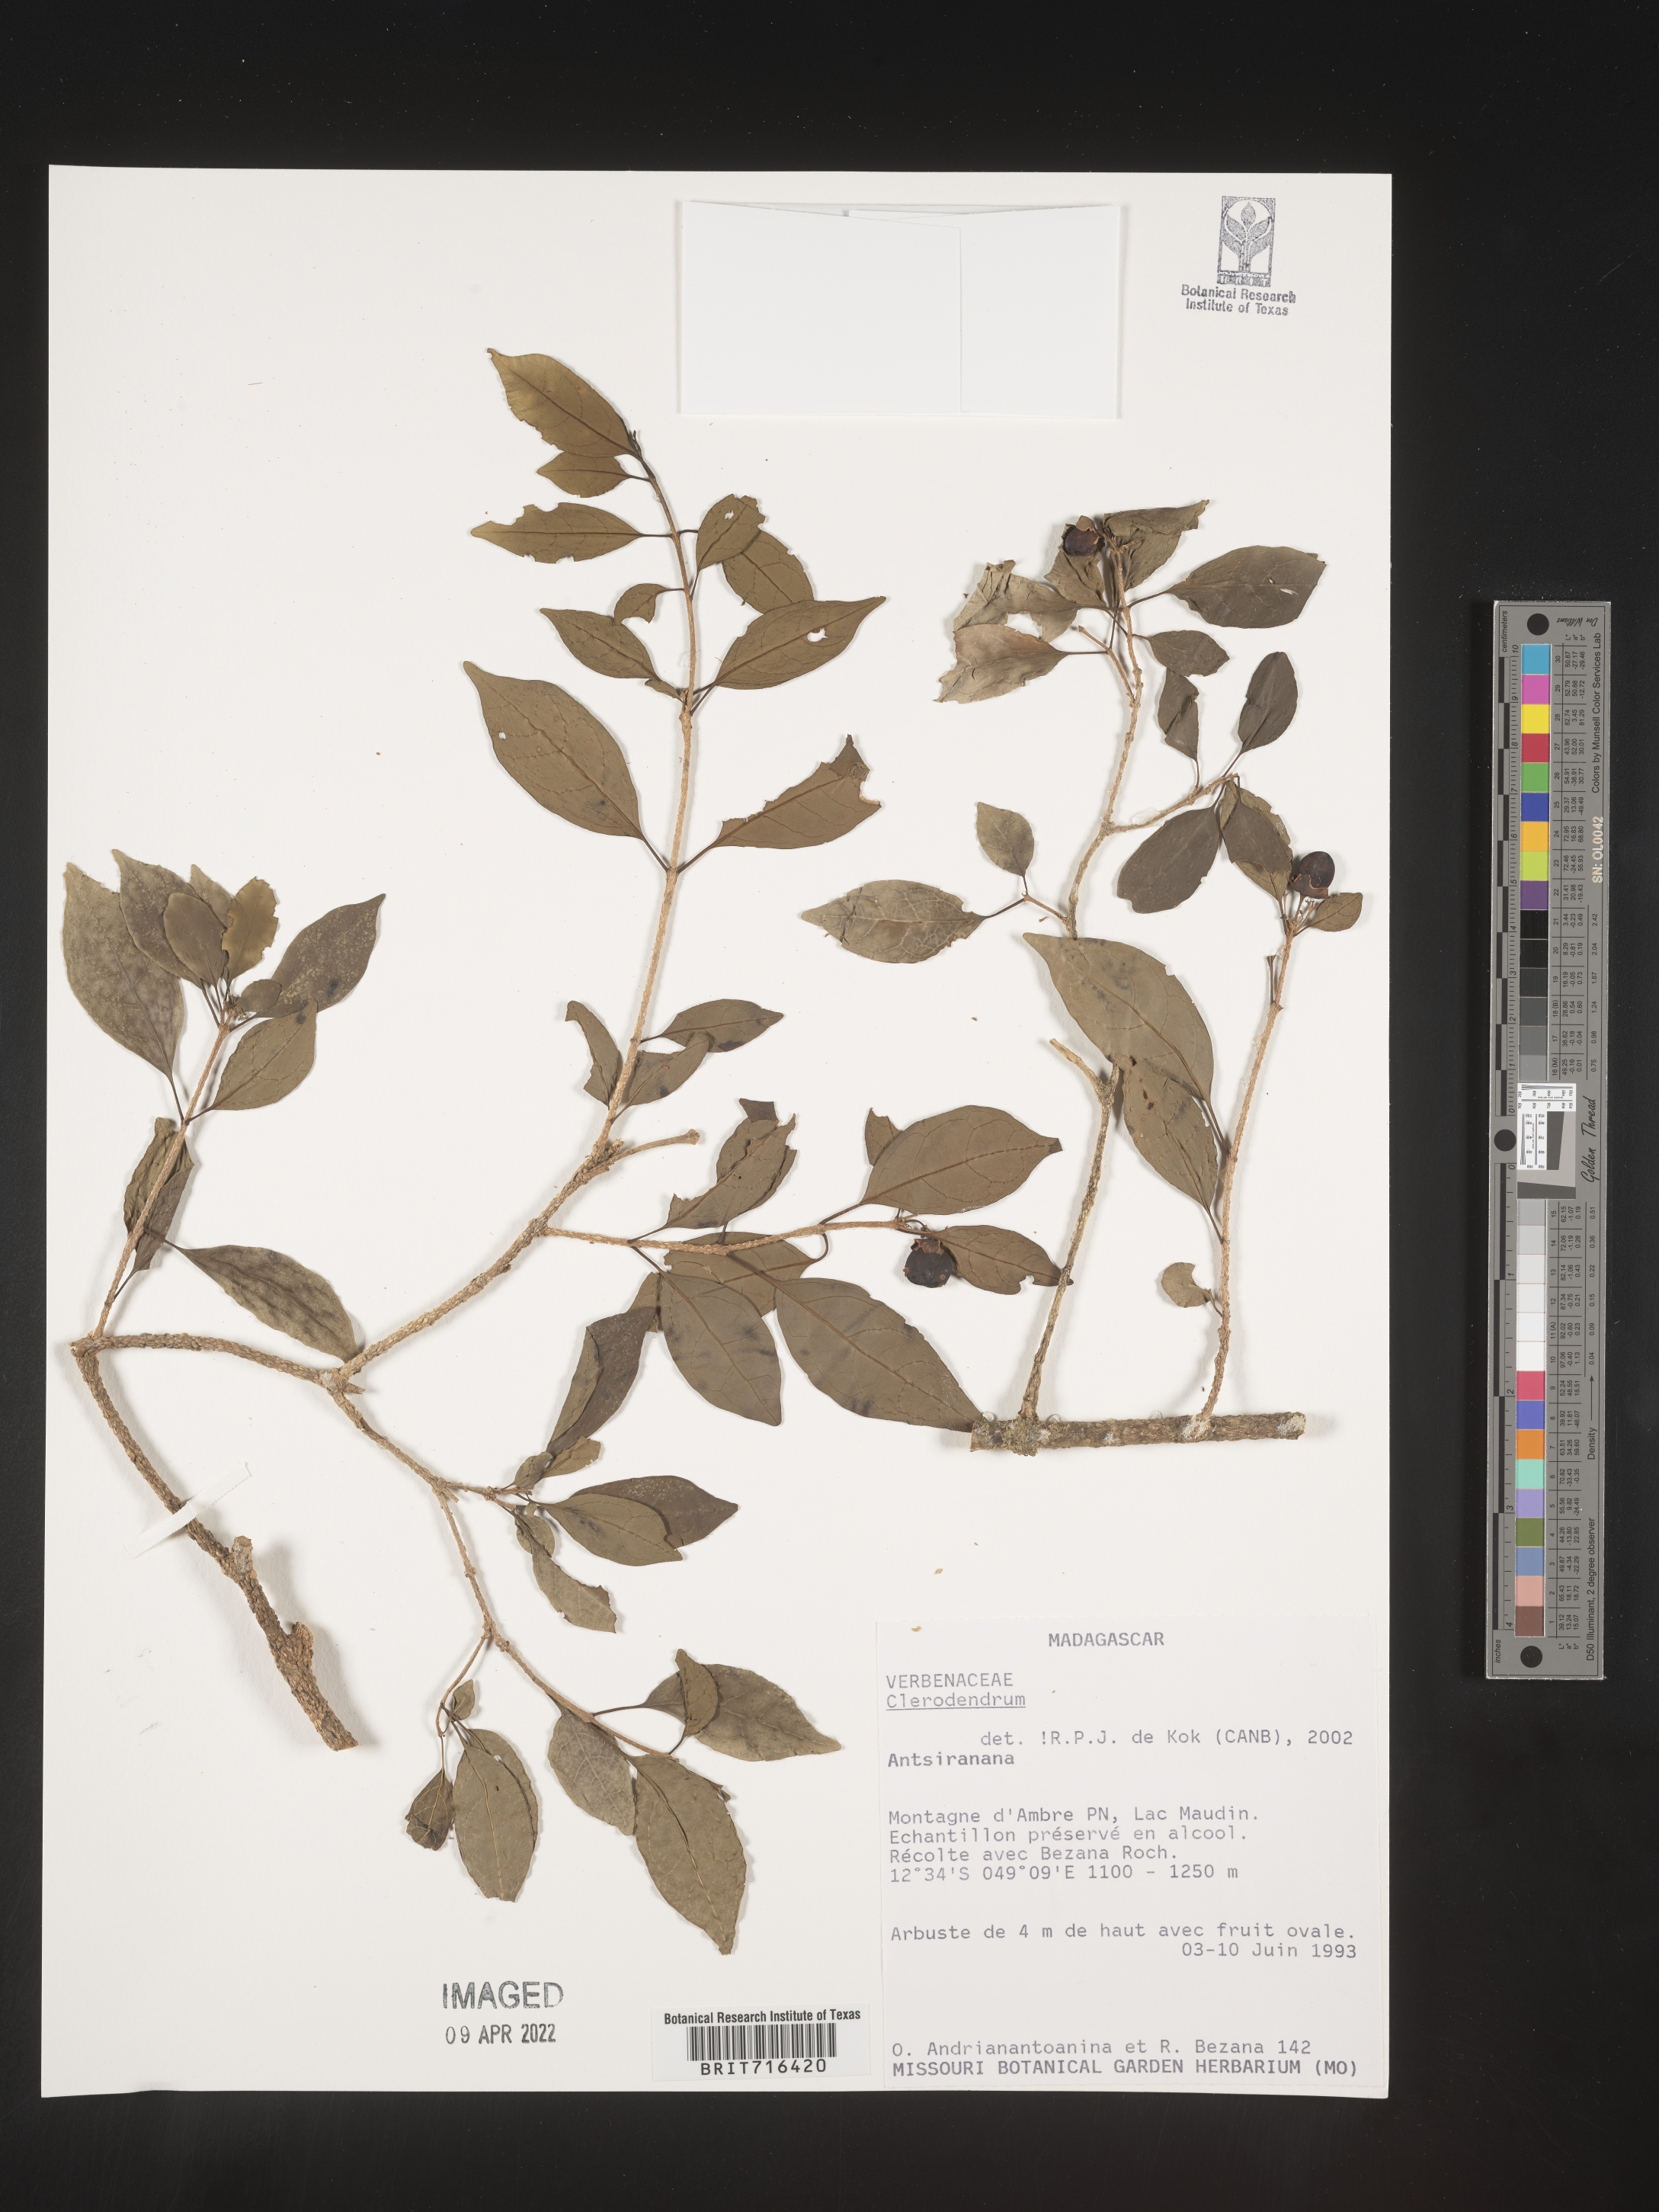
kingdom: Plantae
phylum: Tracheophyta
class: Magnoliopsida
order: Lamiales
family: Lamiaceae
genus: Clerodendrum
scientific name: Clerodendrum
